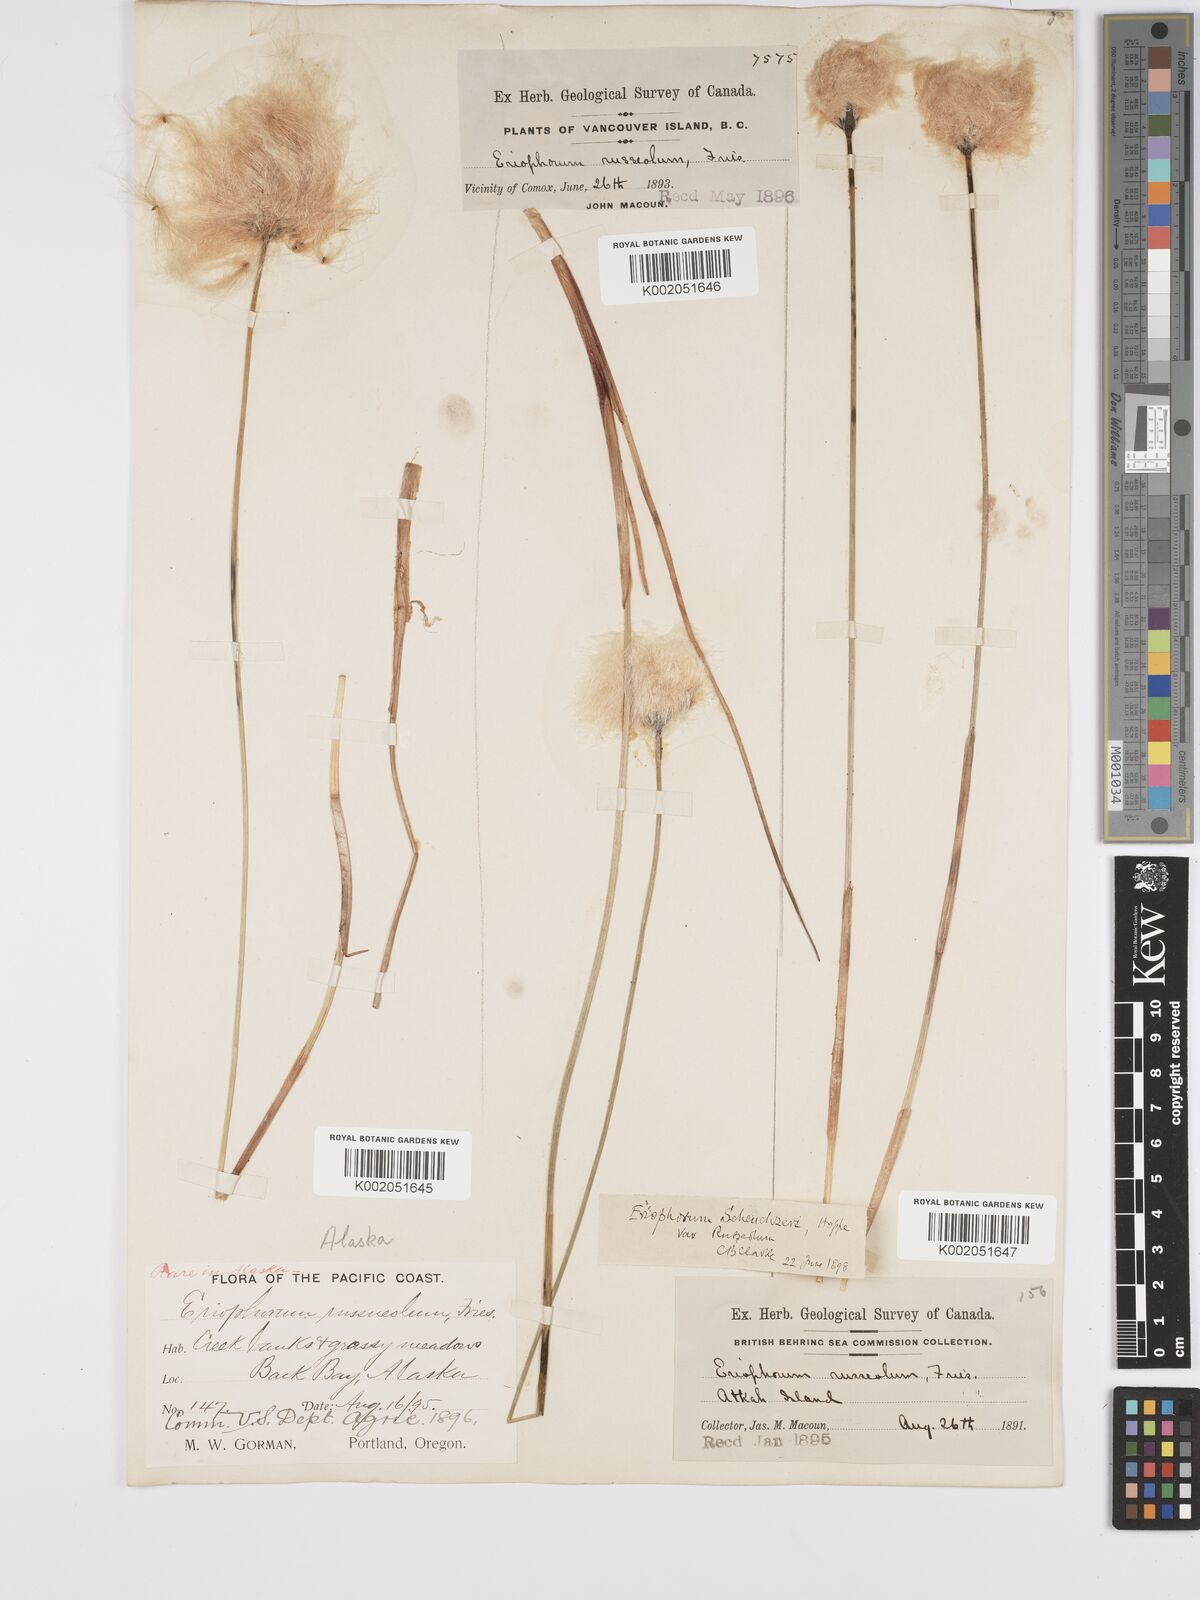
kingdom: Plantae
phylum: Tracheophyta
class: Liliopsida
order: Poales
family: Cyperaceae
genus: Eriophorum
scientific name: Eriophorum chamissonis
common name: Chamisso's cottongrass
